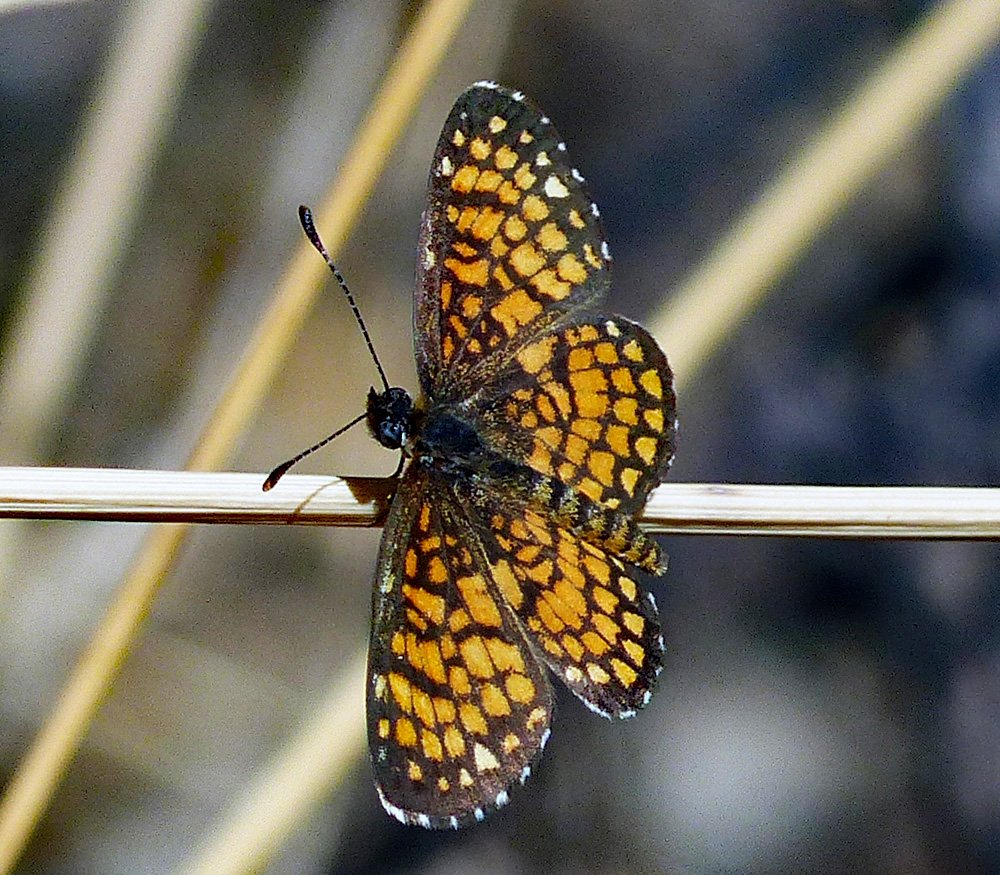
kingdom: Animalia
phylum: Arthropoda
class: Insecta
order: Lepidoptera
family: Nymphalidae
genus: Texola
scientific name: Texola
